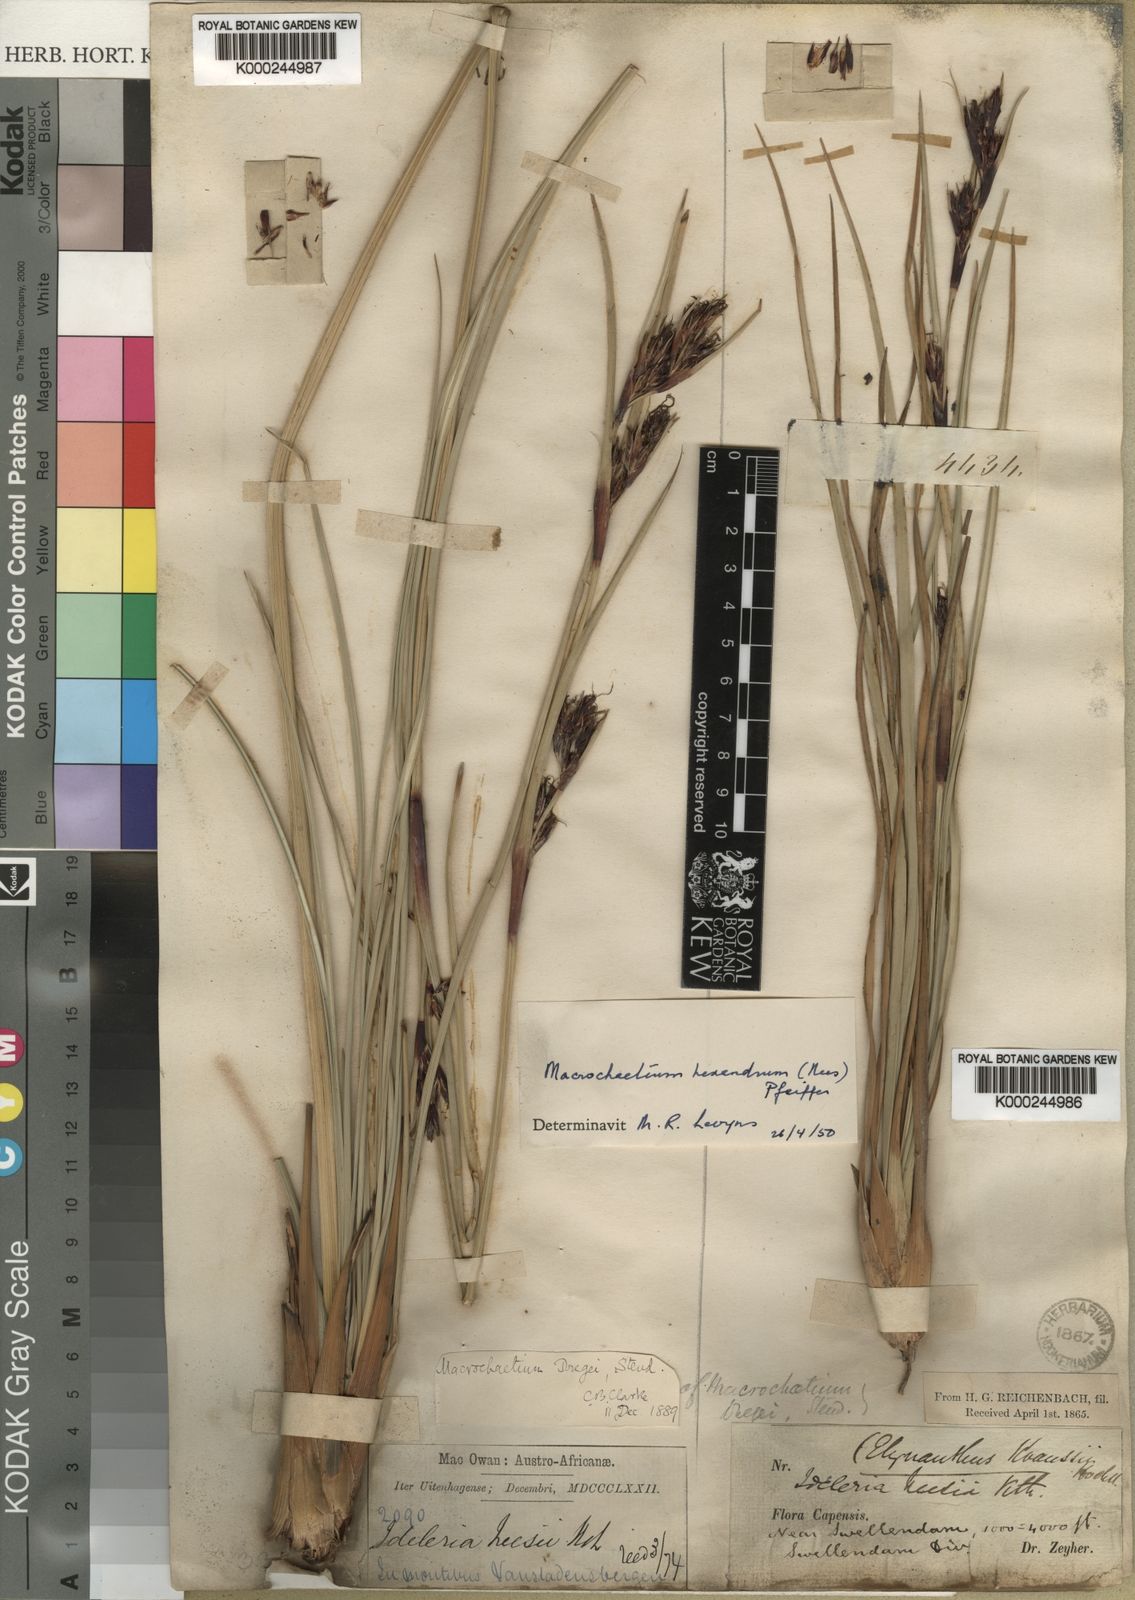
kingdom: Plantae
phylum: Tracheophyta
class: Liliopsida
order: Poales
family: Cyperaceae
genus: Cyathocoma
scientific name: Cyathocoma hexandra
